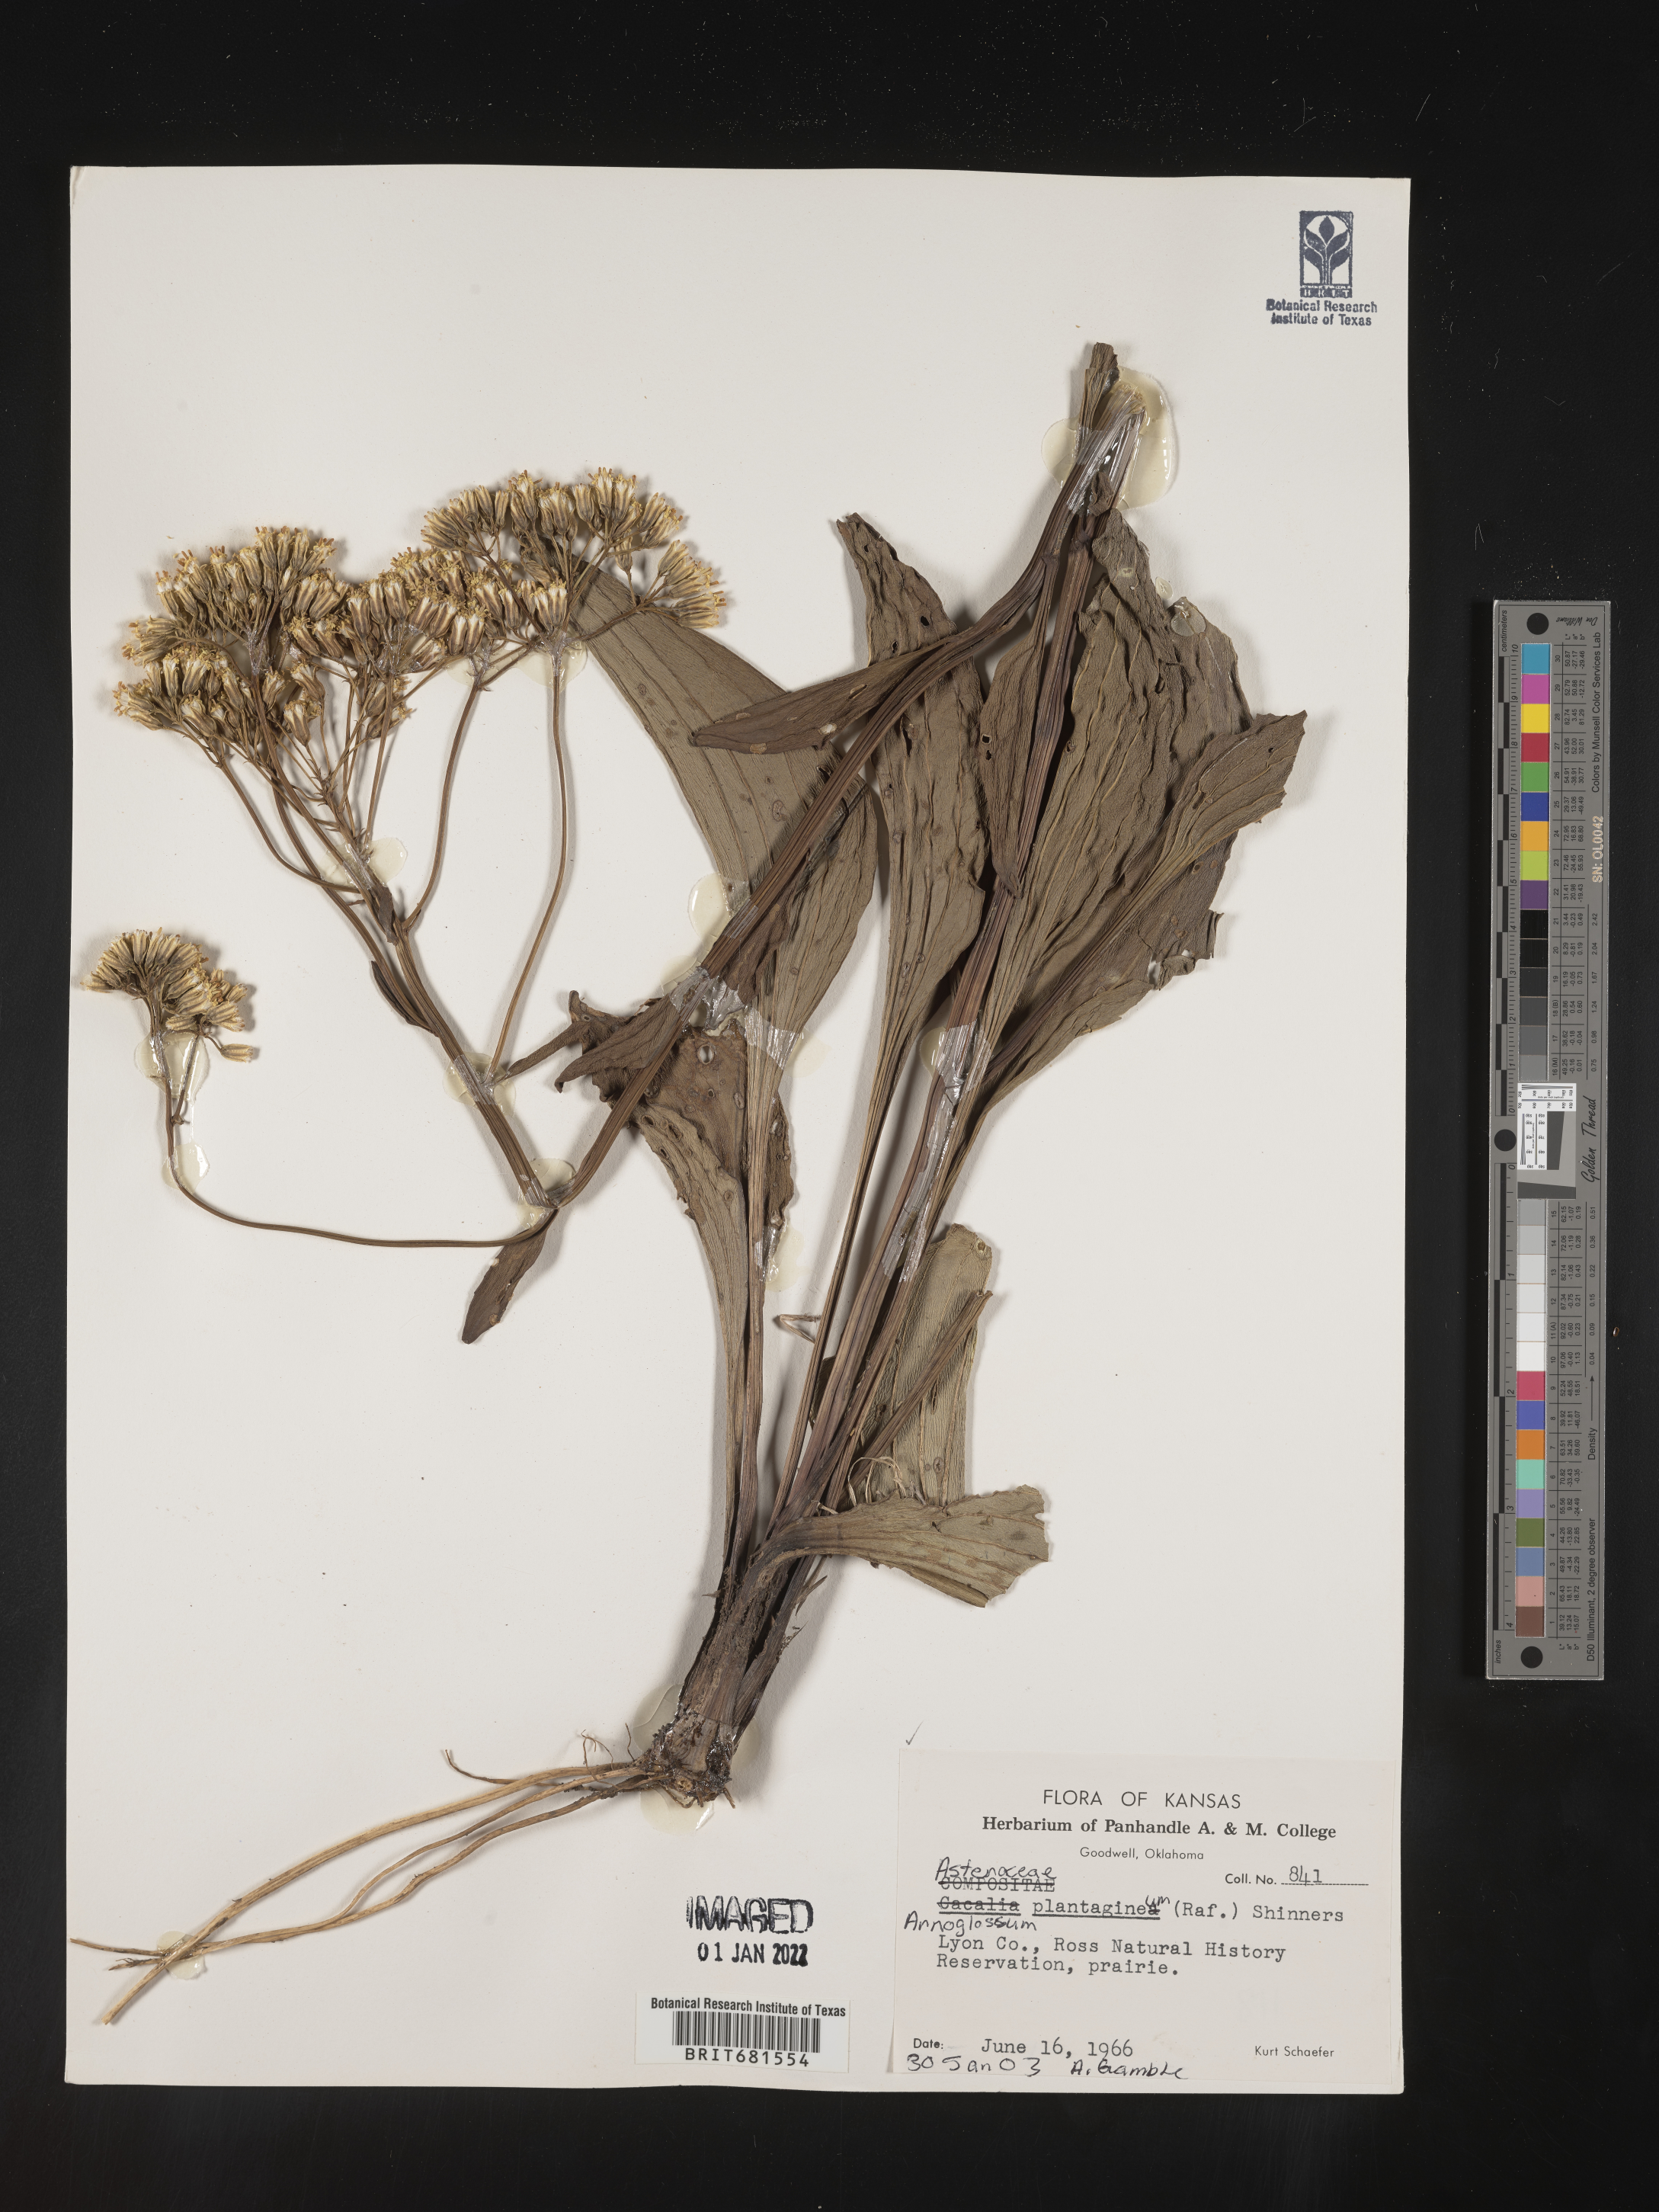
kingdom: Plantae
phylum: Tracheophyta
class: Magnoliopsida
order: Asterales
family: Asteraceae
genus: Arnoglossum
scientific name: Arnoglossum plantagineum
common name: Groove-stemmed indian-plantain
